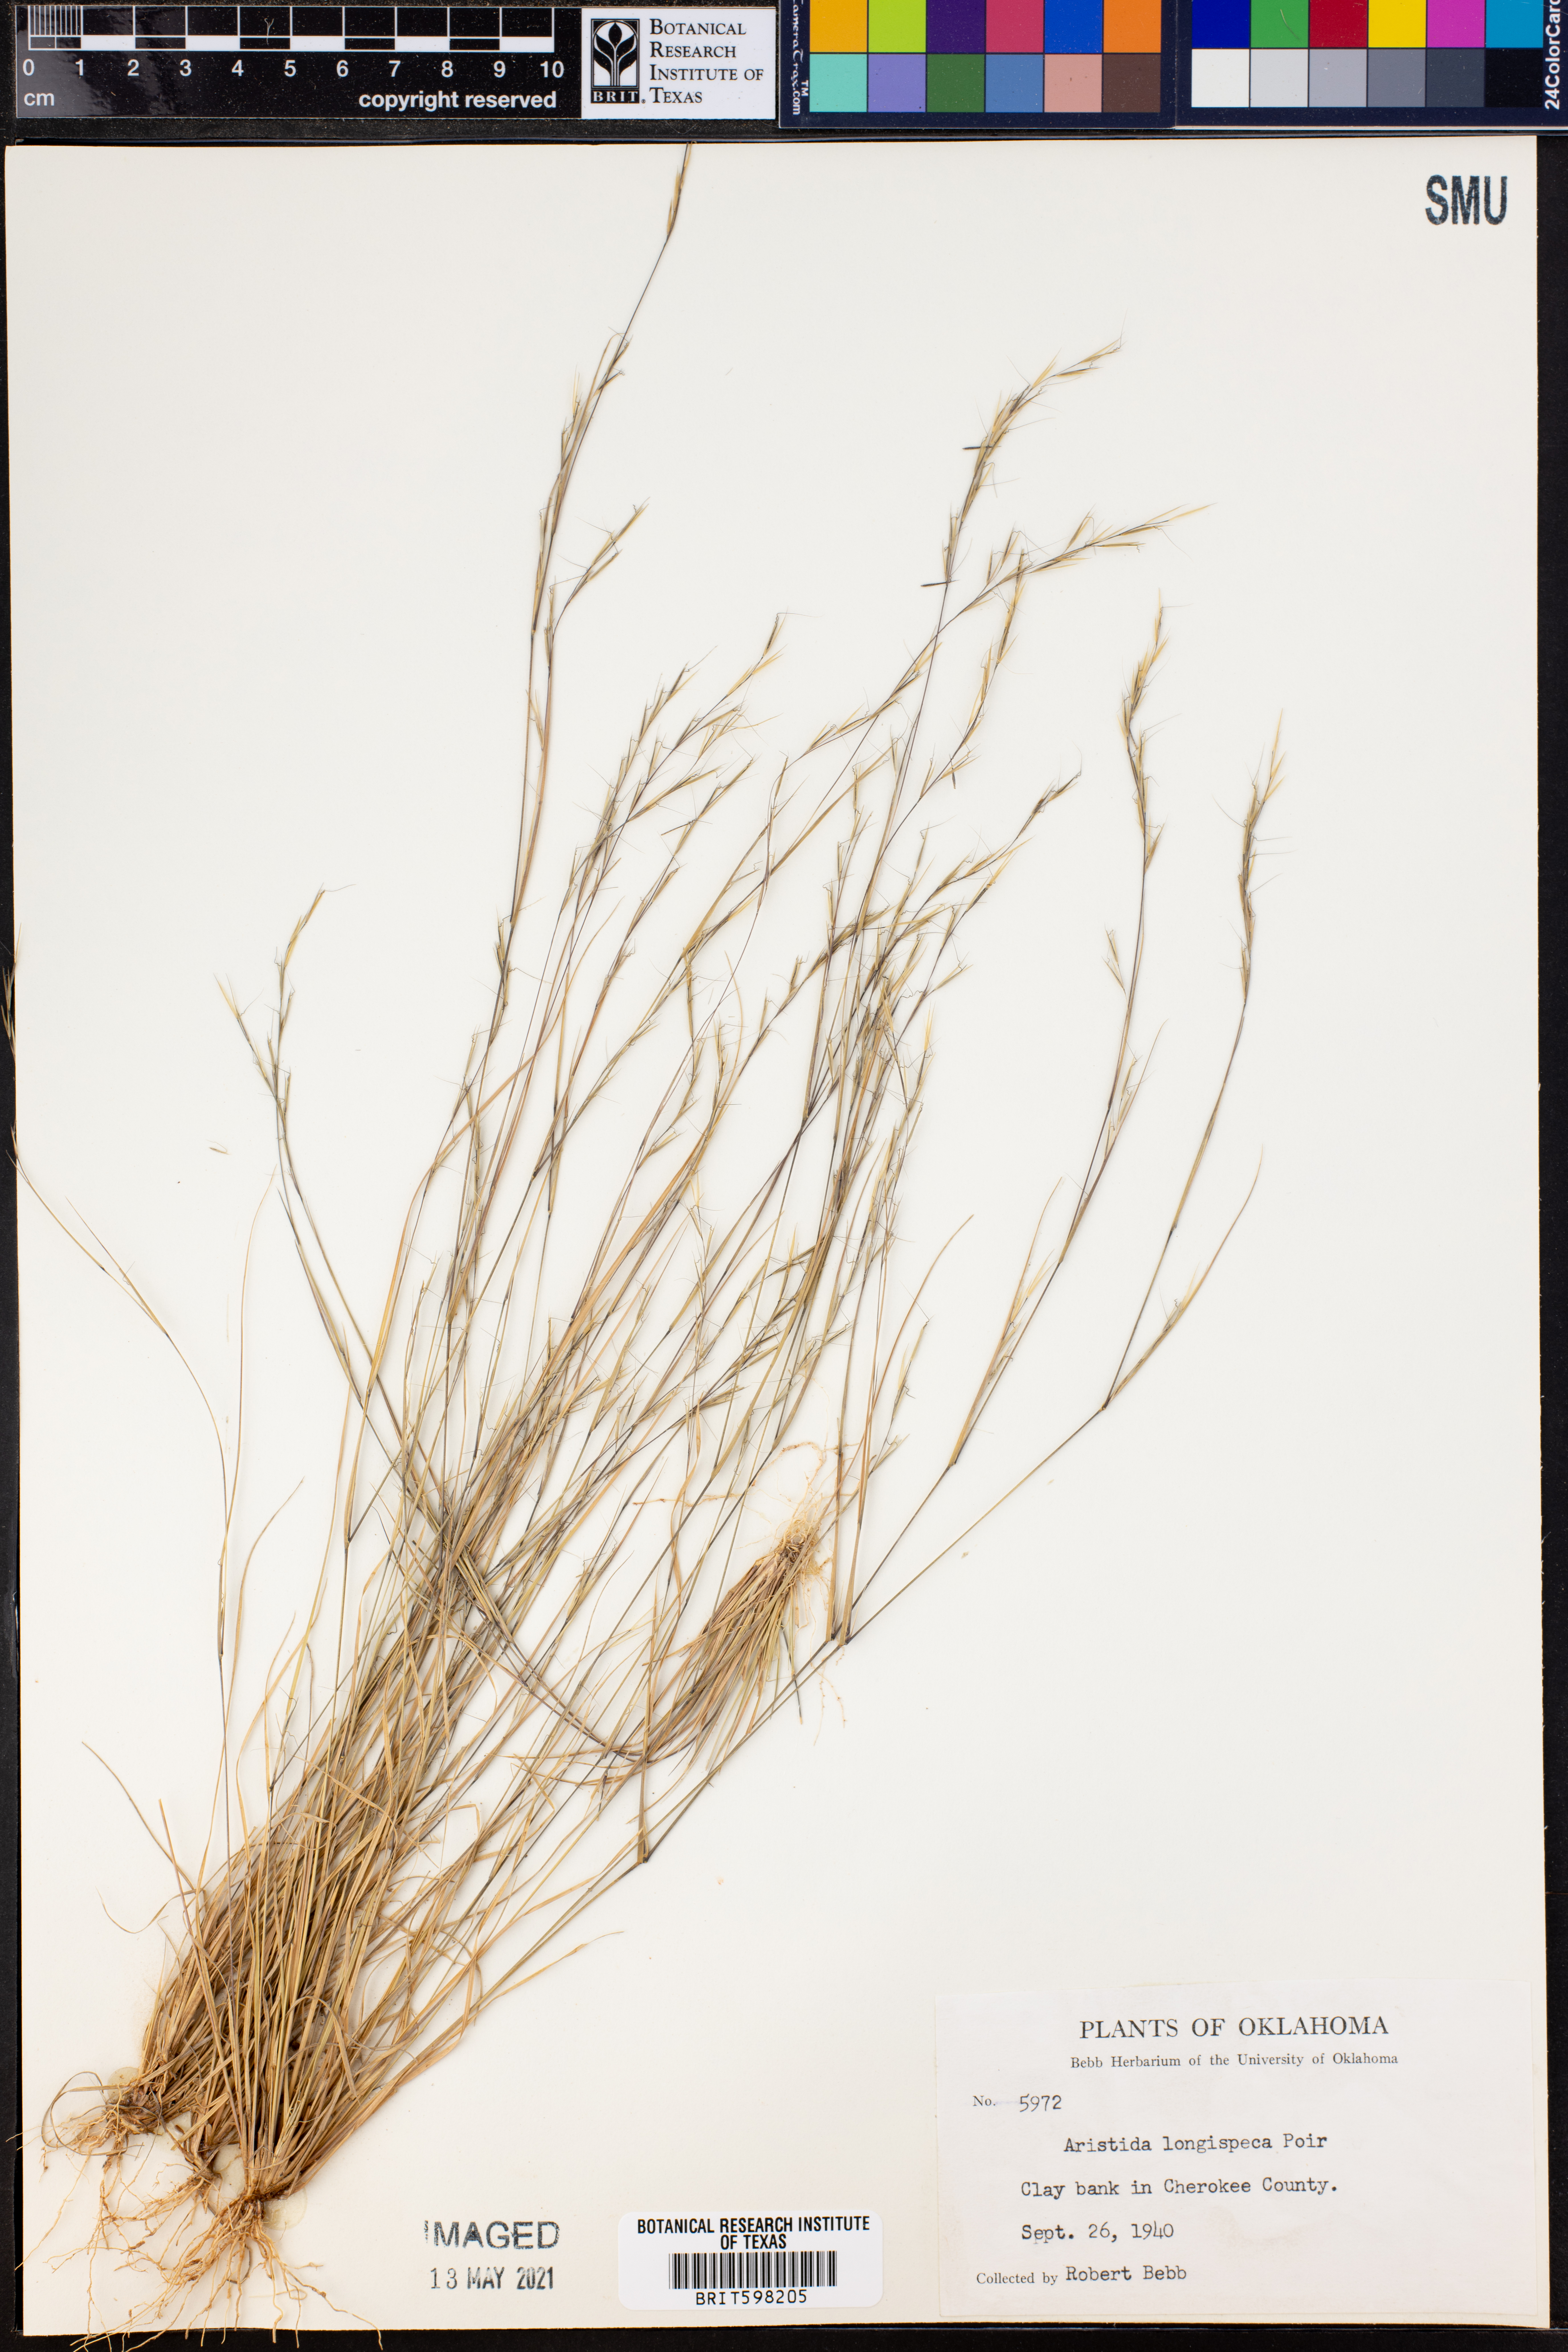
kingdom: Plantae
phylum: Tracheophyta
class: Liliopsida
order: Poales
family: Poaceae
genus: Aristida
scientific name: Aristida longispica
